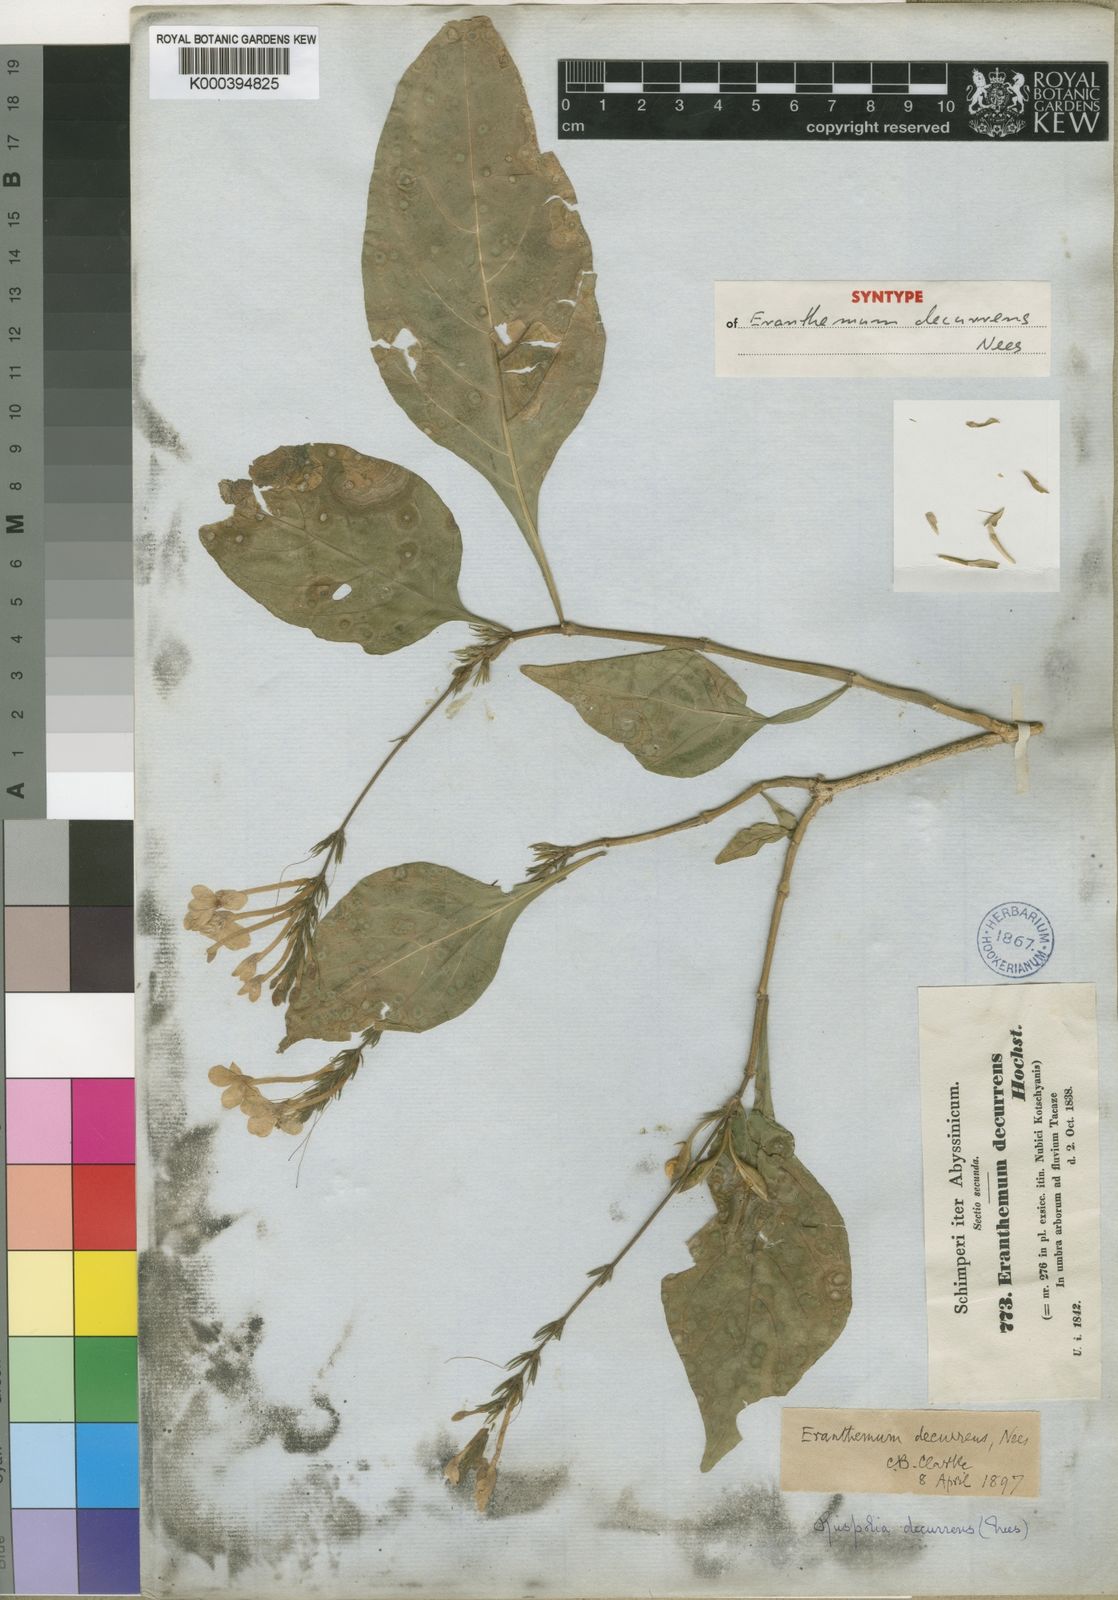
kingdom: Plantae
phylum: Tracheophyta
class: Magnoliopsida
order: Lamiales
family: Acanthaceae
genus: Ruspolia
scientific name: Ruspolia decurrens
